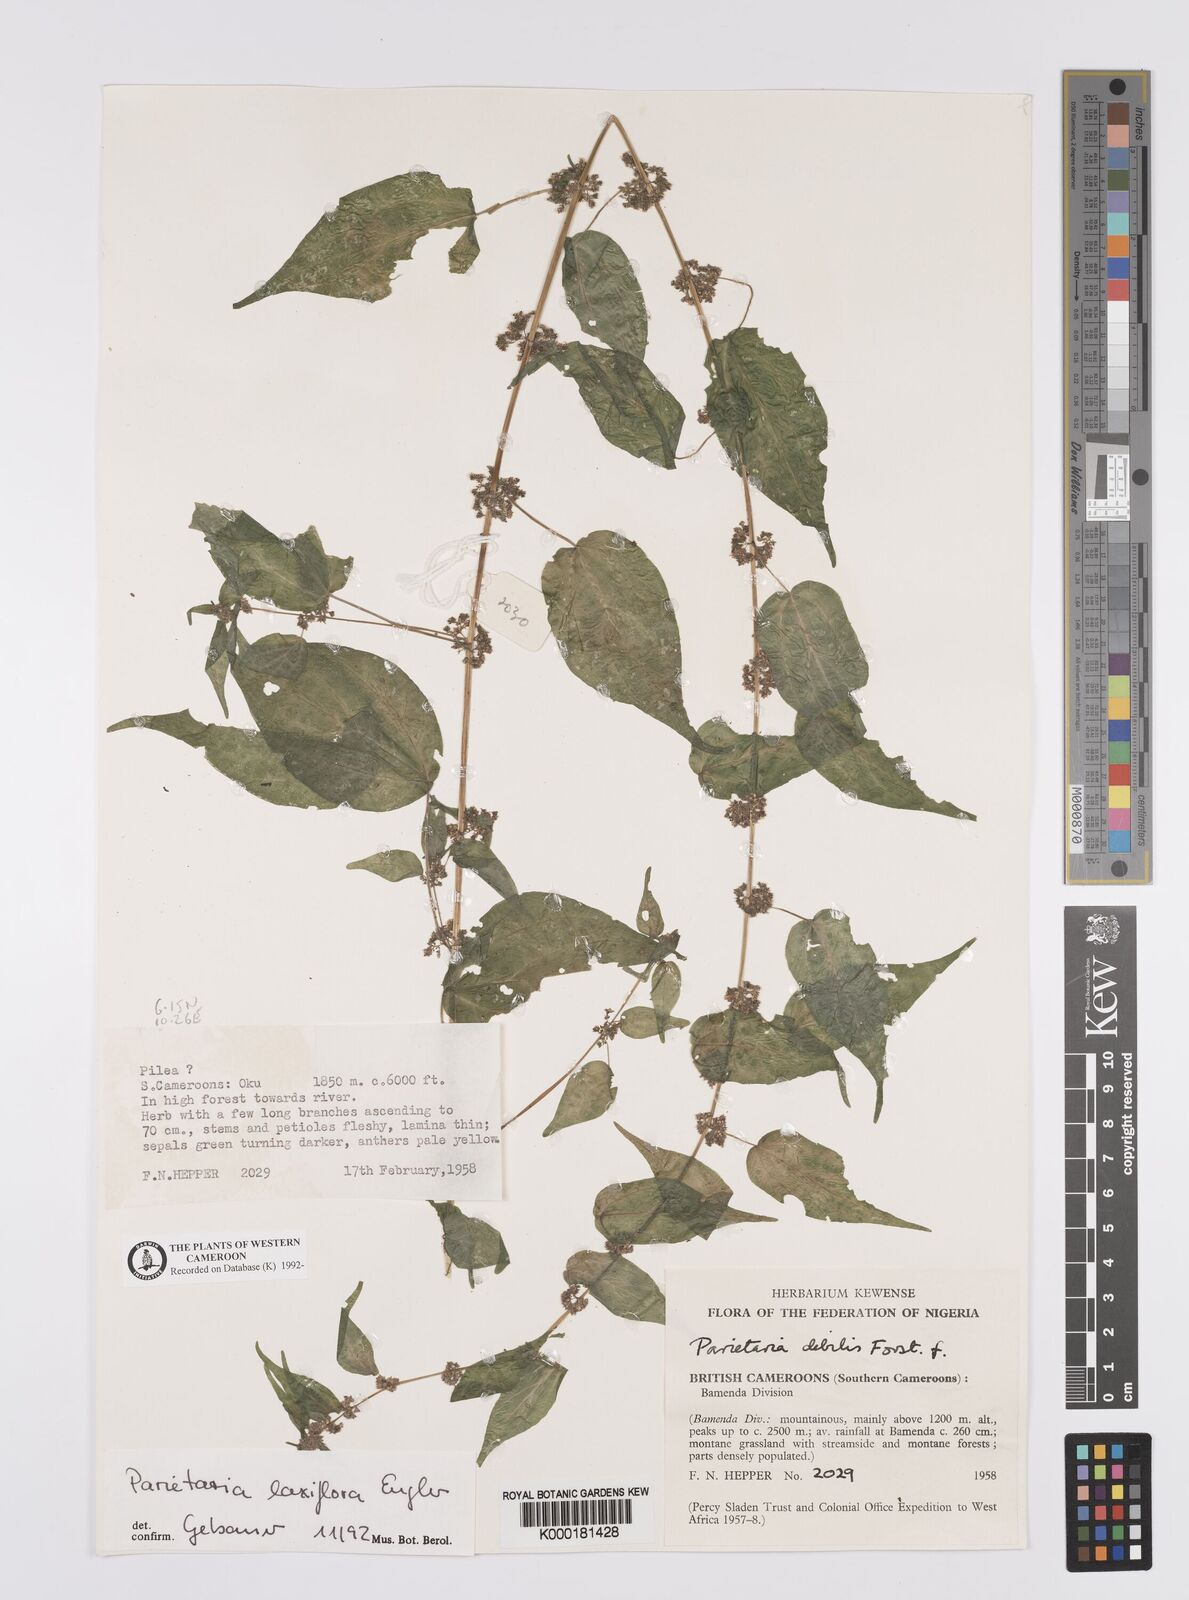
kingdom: Plantae
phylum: Tracheophyta
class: Magnoliopsida
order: Rosales
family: Urticaceae
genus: Parietaria
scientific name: Parietaria debilis
